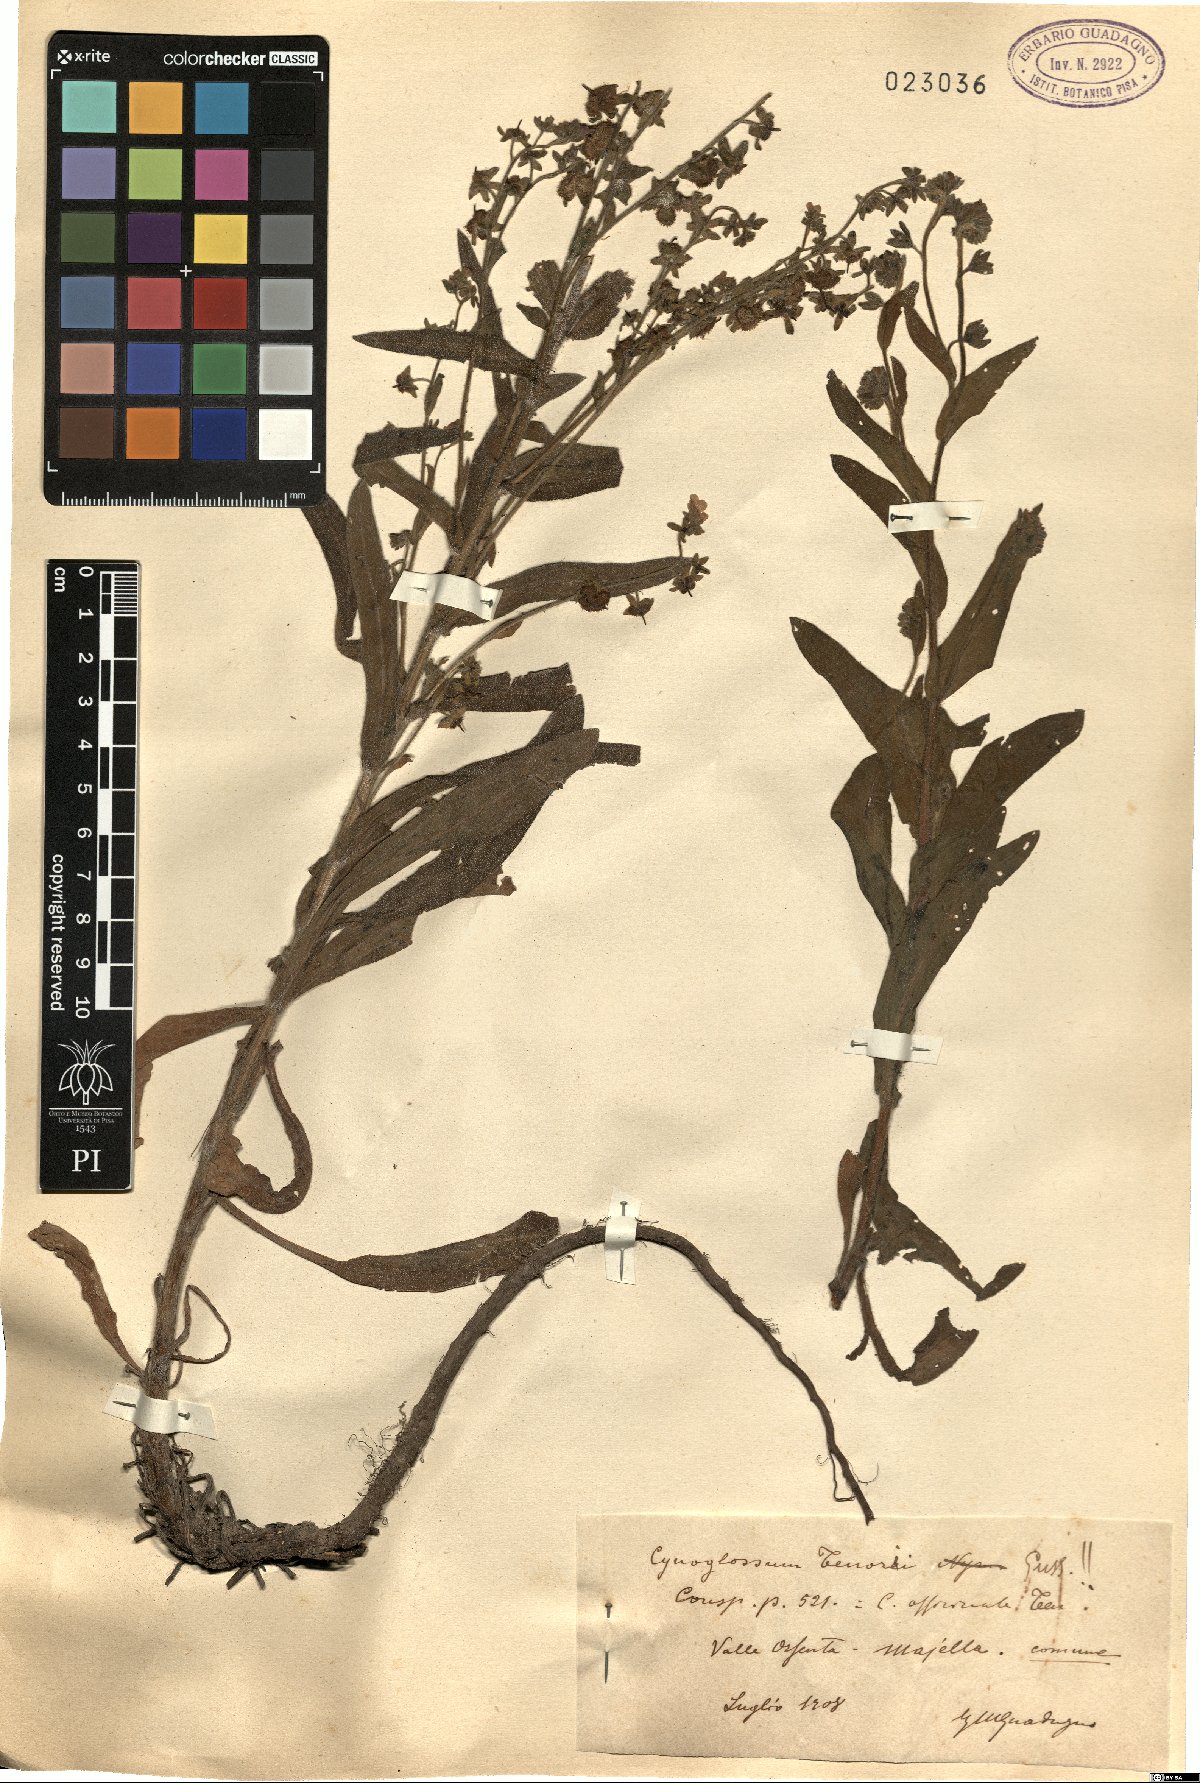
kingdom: Plantae
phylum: Tracheophyta
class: Magnoliopsida
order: Boraginales
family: Boraginaceae
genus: Cynoglossum
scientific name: Cynoglossum nebrodense
